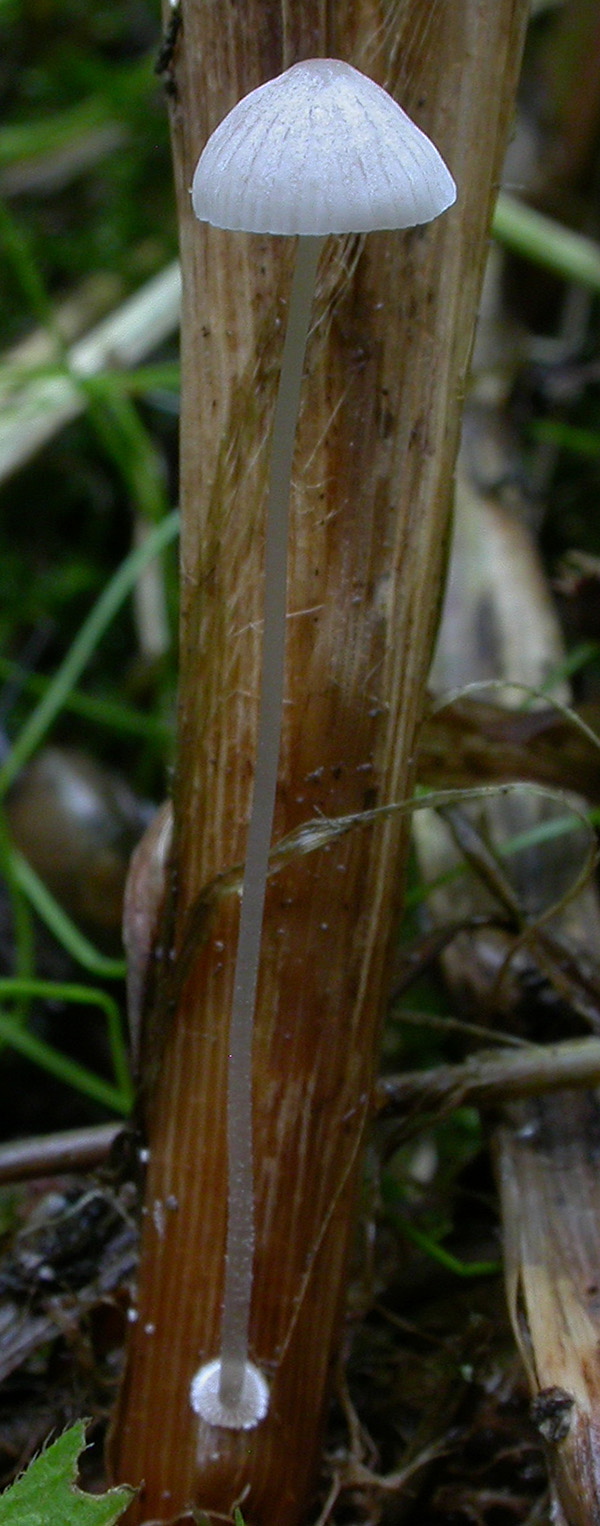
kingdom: Fungi
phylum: Basidiomycota
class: Agaricomycetes
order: Agaricales
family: Mycenaceae
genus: Mycena
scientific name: Mycena stylobates
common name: fureskivet huesvamp
